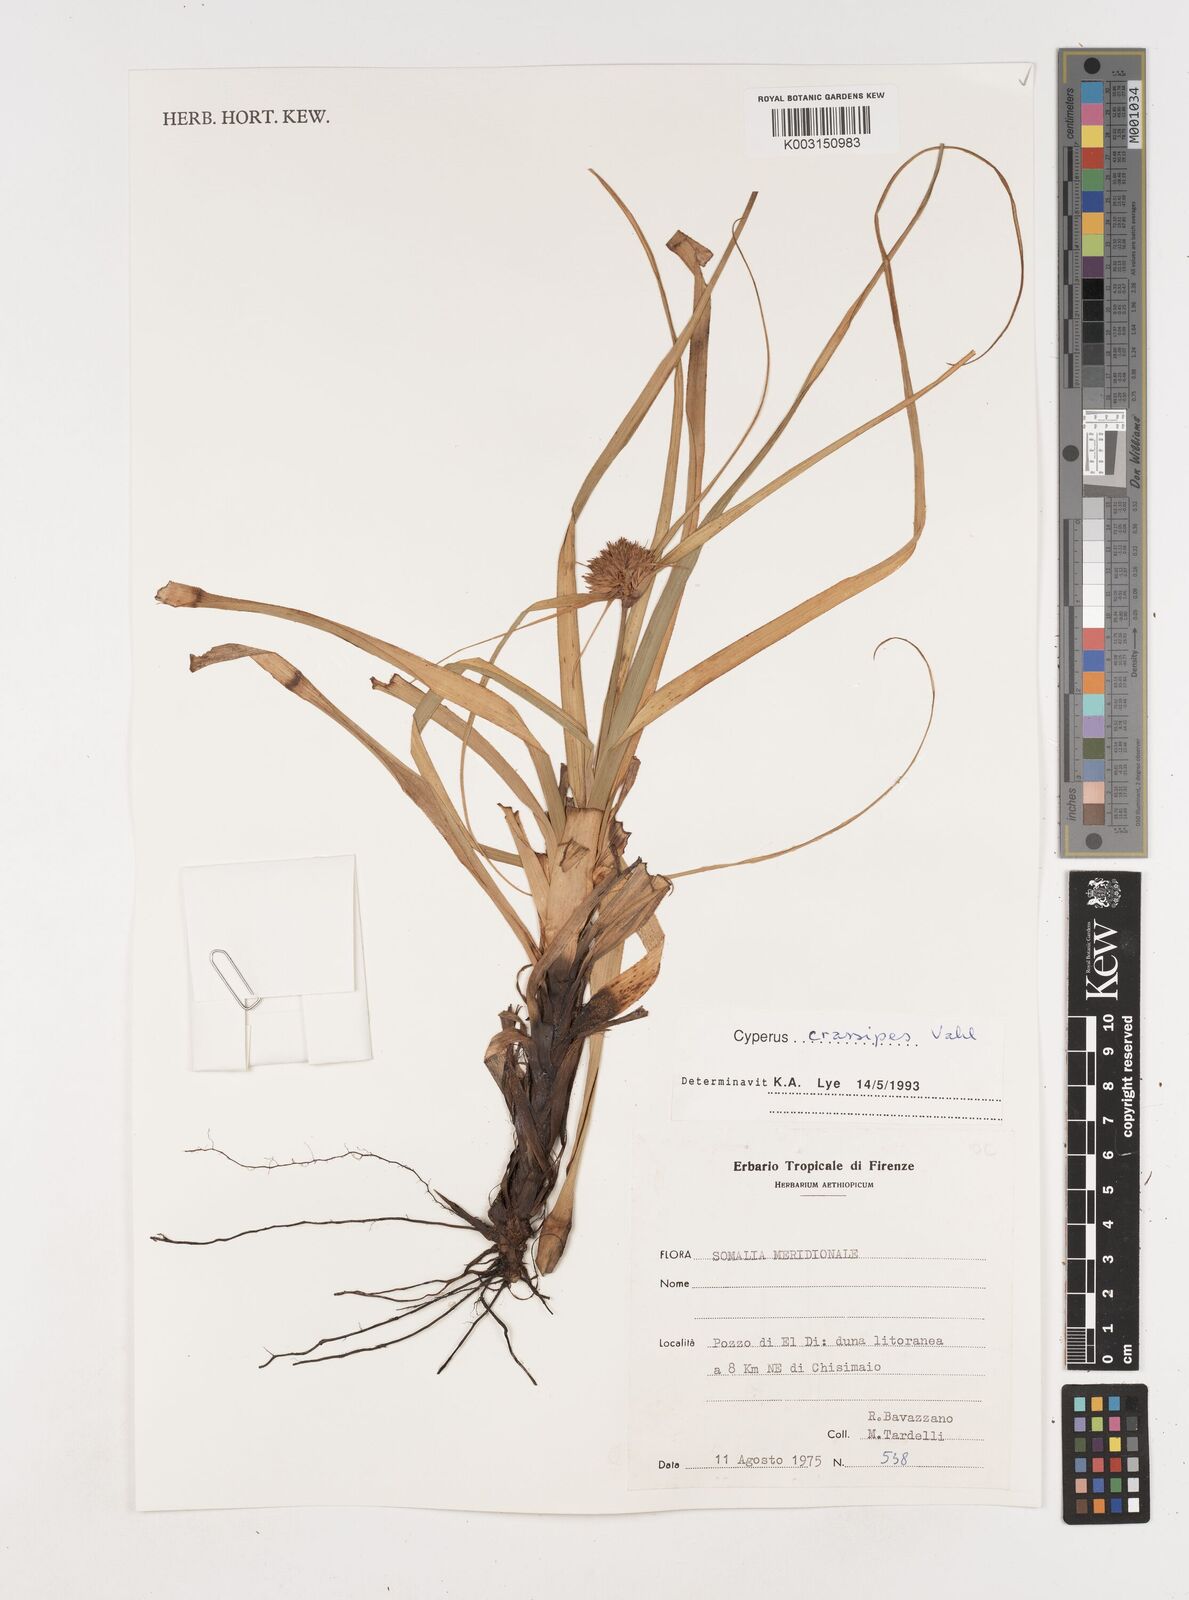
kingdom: Plantae
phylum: Tracheophyta
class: Liliopsida
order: Poales
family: Cyperaceae
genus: Cyperus
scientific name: Cyperus crassipes
